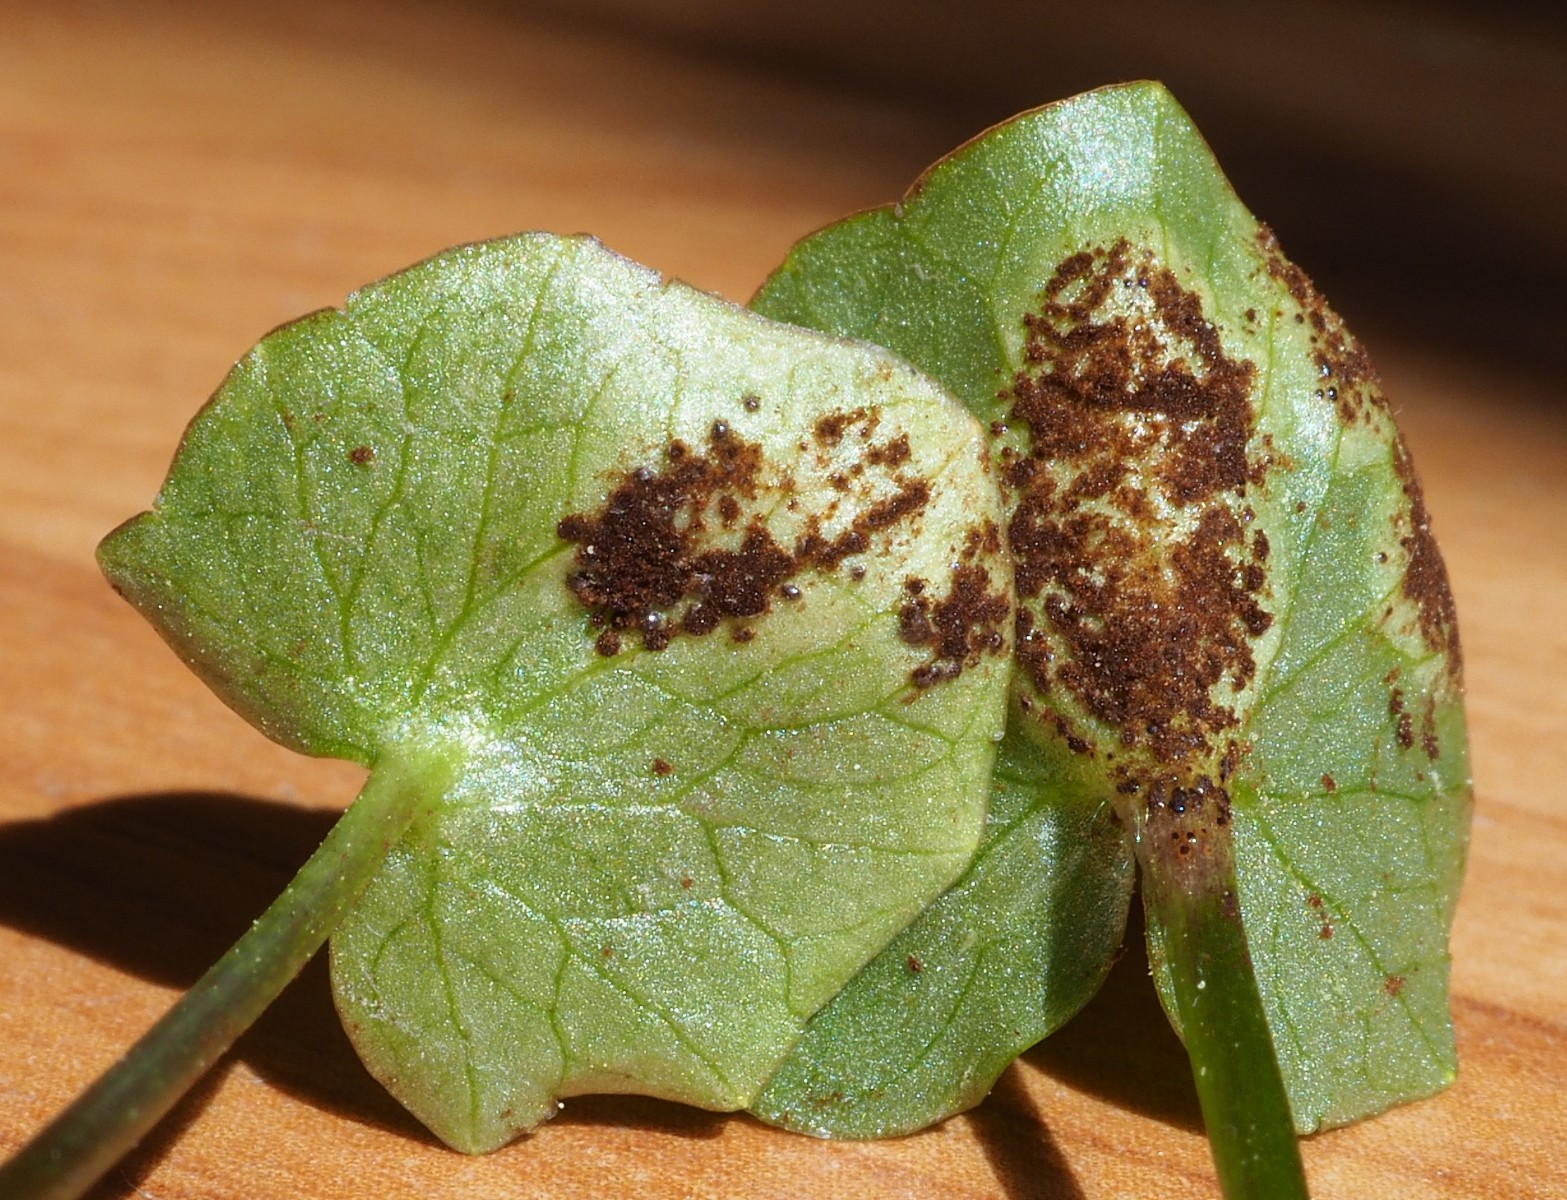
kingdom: Fungi
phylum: Basidiomycota
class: Pucciniomycetes
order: Pucciniales
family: Pucciniaceae
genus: Uromyces
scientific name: Uromyces ficariae
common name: vorterod-encellerust
